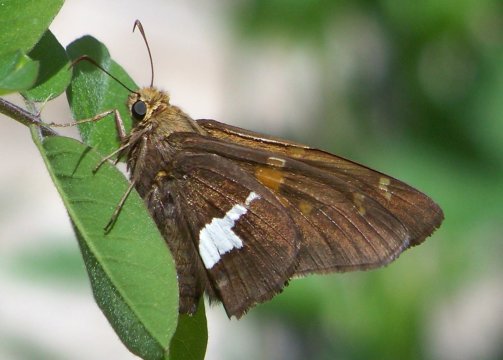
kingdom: Animalia
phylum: Arthropoda
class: Insecta
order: Lepidoptera
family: Hesperiidae
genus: Epargyreus
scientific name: Epargyreus clarus
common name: Silver-spotted Skipper
